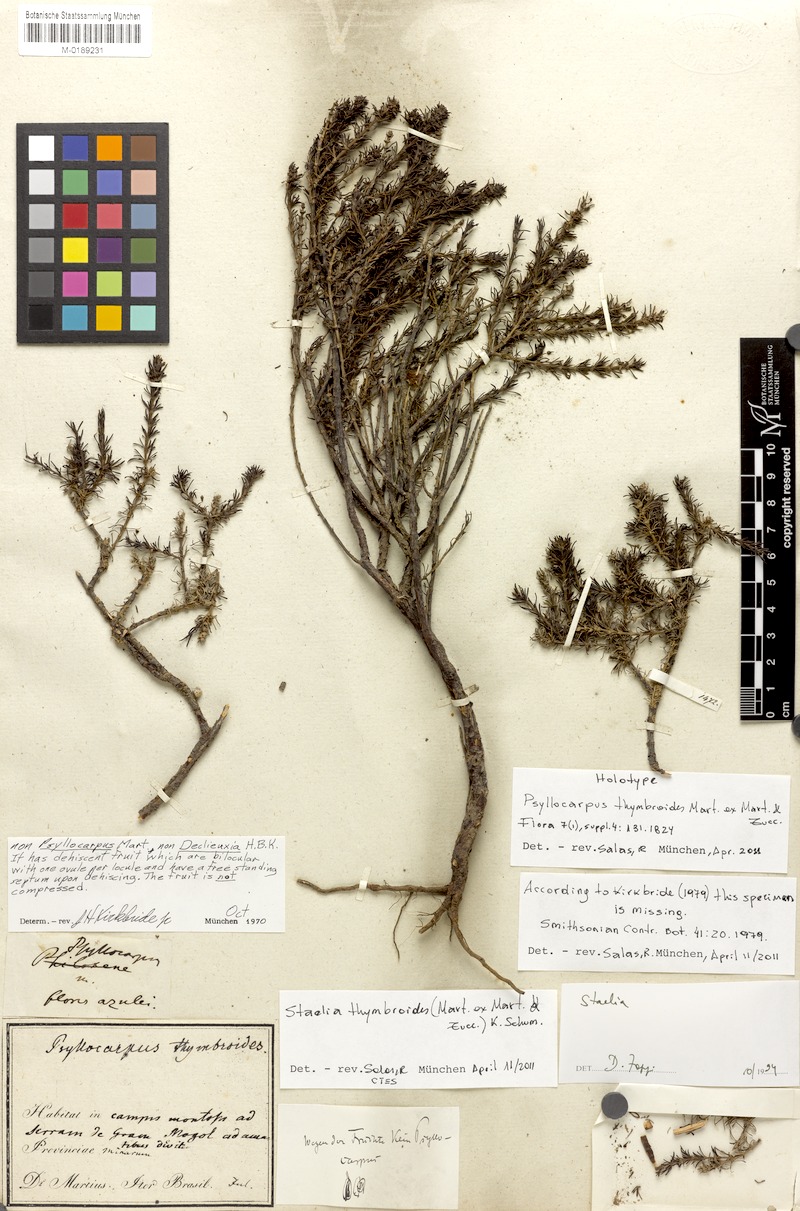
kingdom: Plantae
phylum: Tracheophyta
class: Magnoliopsida
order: Gentianales
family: Rubiaceae
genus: Staelia
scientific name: Staelia thymbroides
